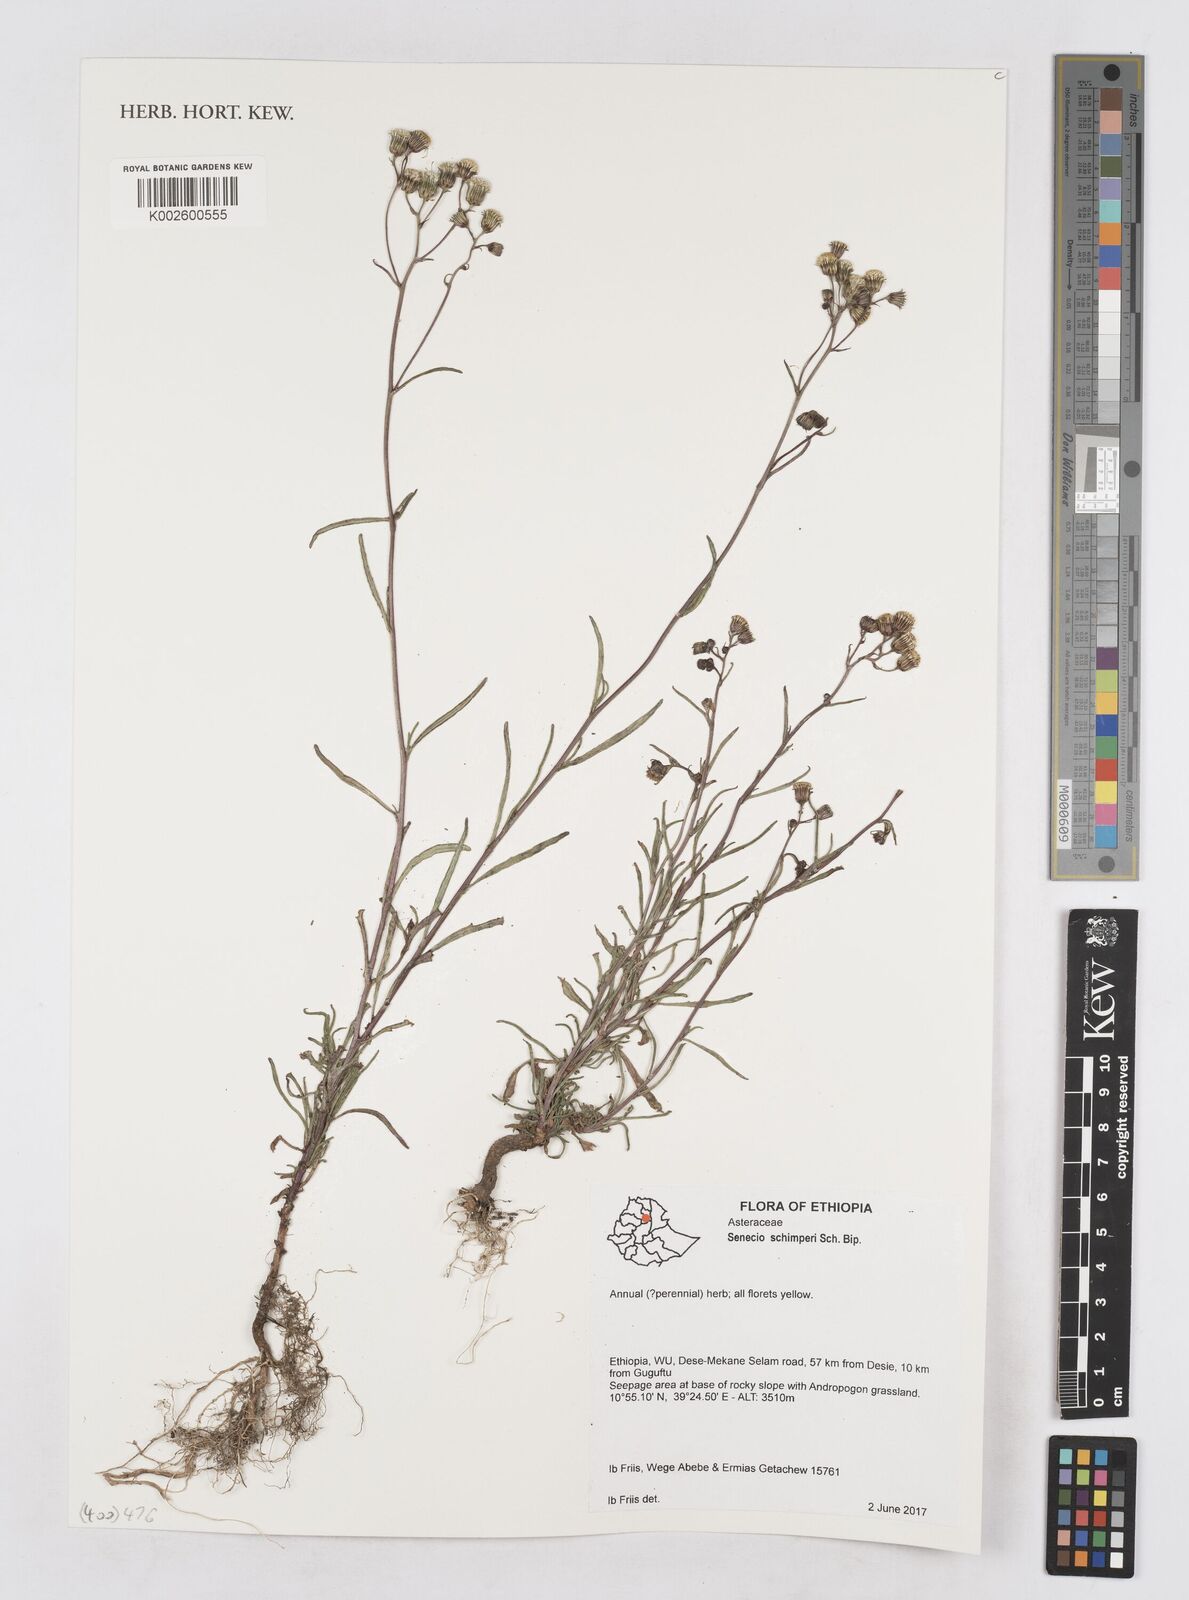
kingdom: Plantae
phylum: Tracheophyta
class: Magnoliopsida
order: Asterales
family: Asteraceae
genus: Senecio
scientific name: Senecio schimperi
